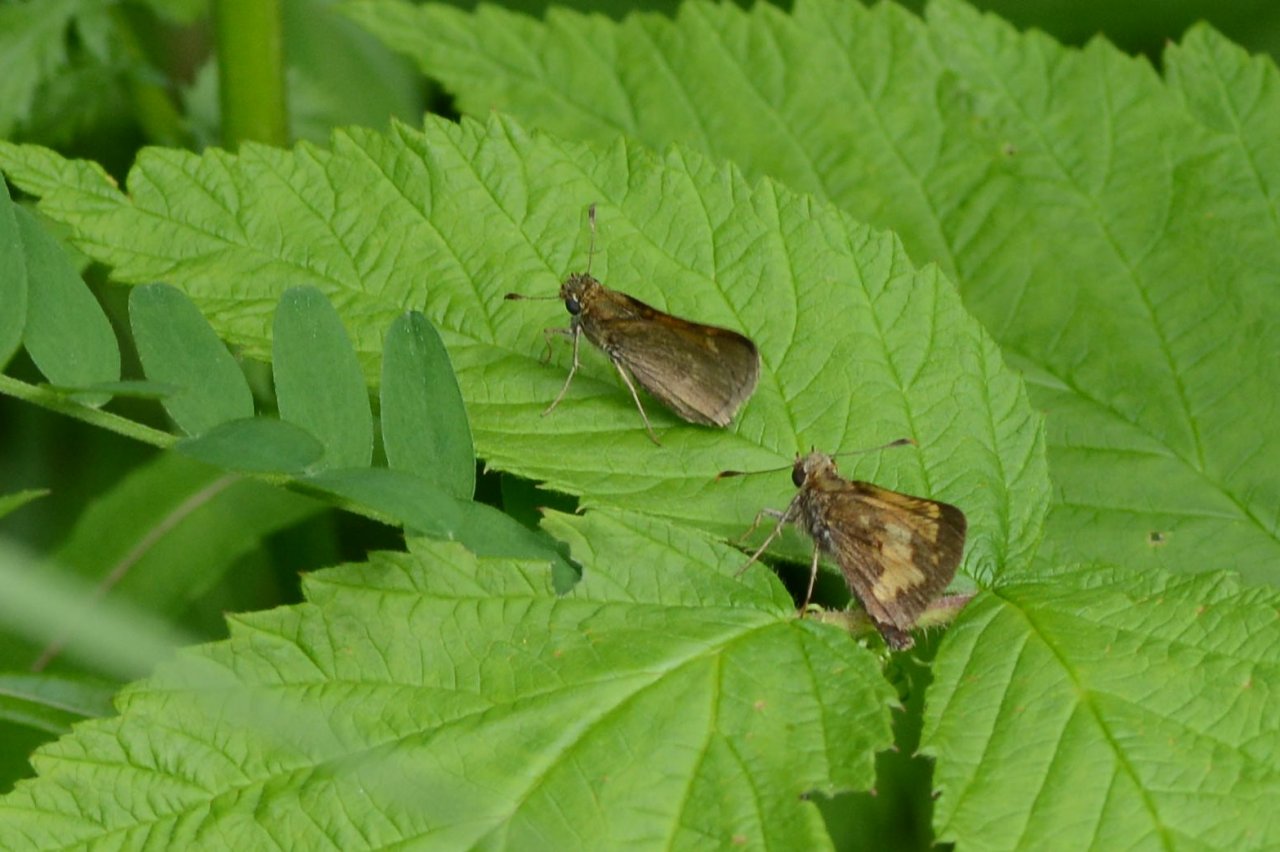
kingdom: Animalia
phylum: Arthropoda
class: Insecta
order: Lepidoptera
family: Hesperiidae
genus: Polites
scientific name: Polites themistocles
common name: Tawny-edged Skipper
